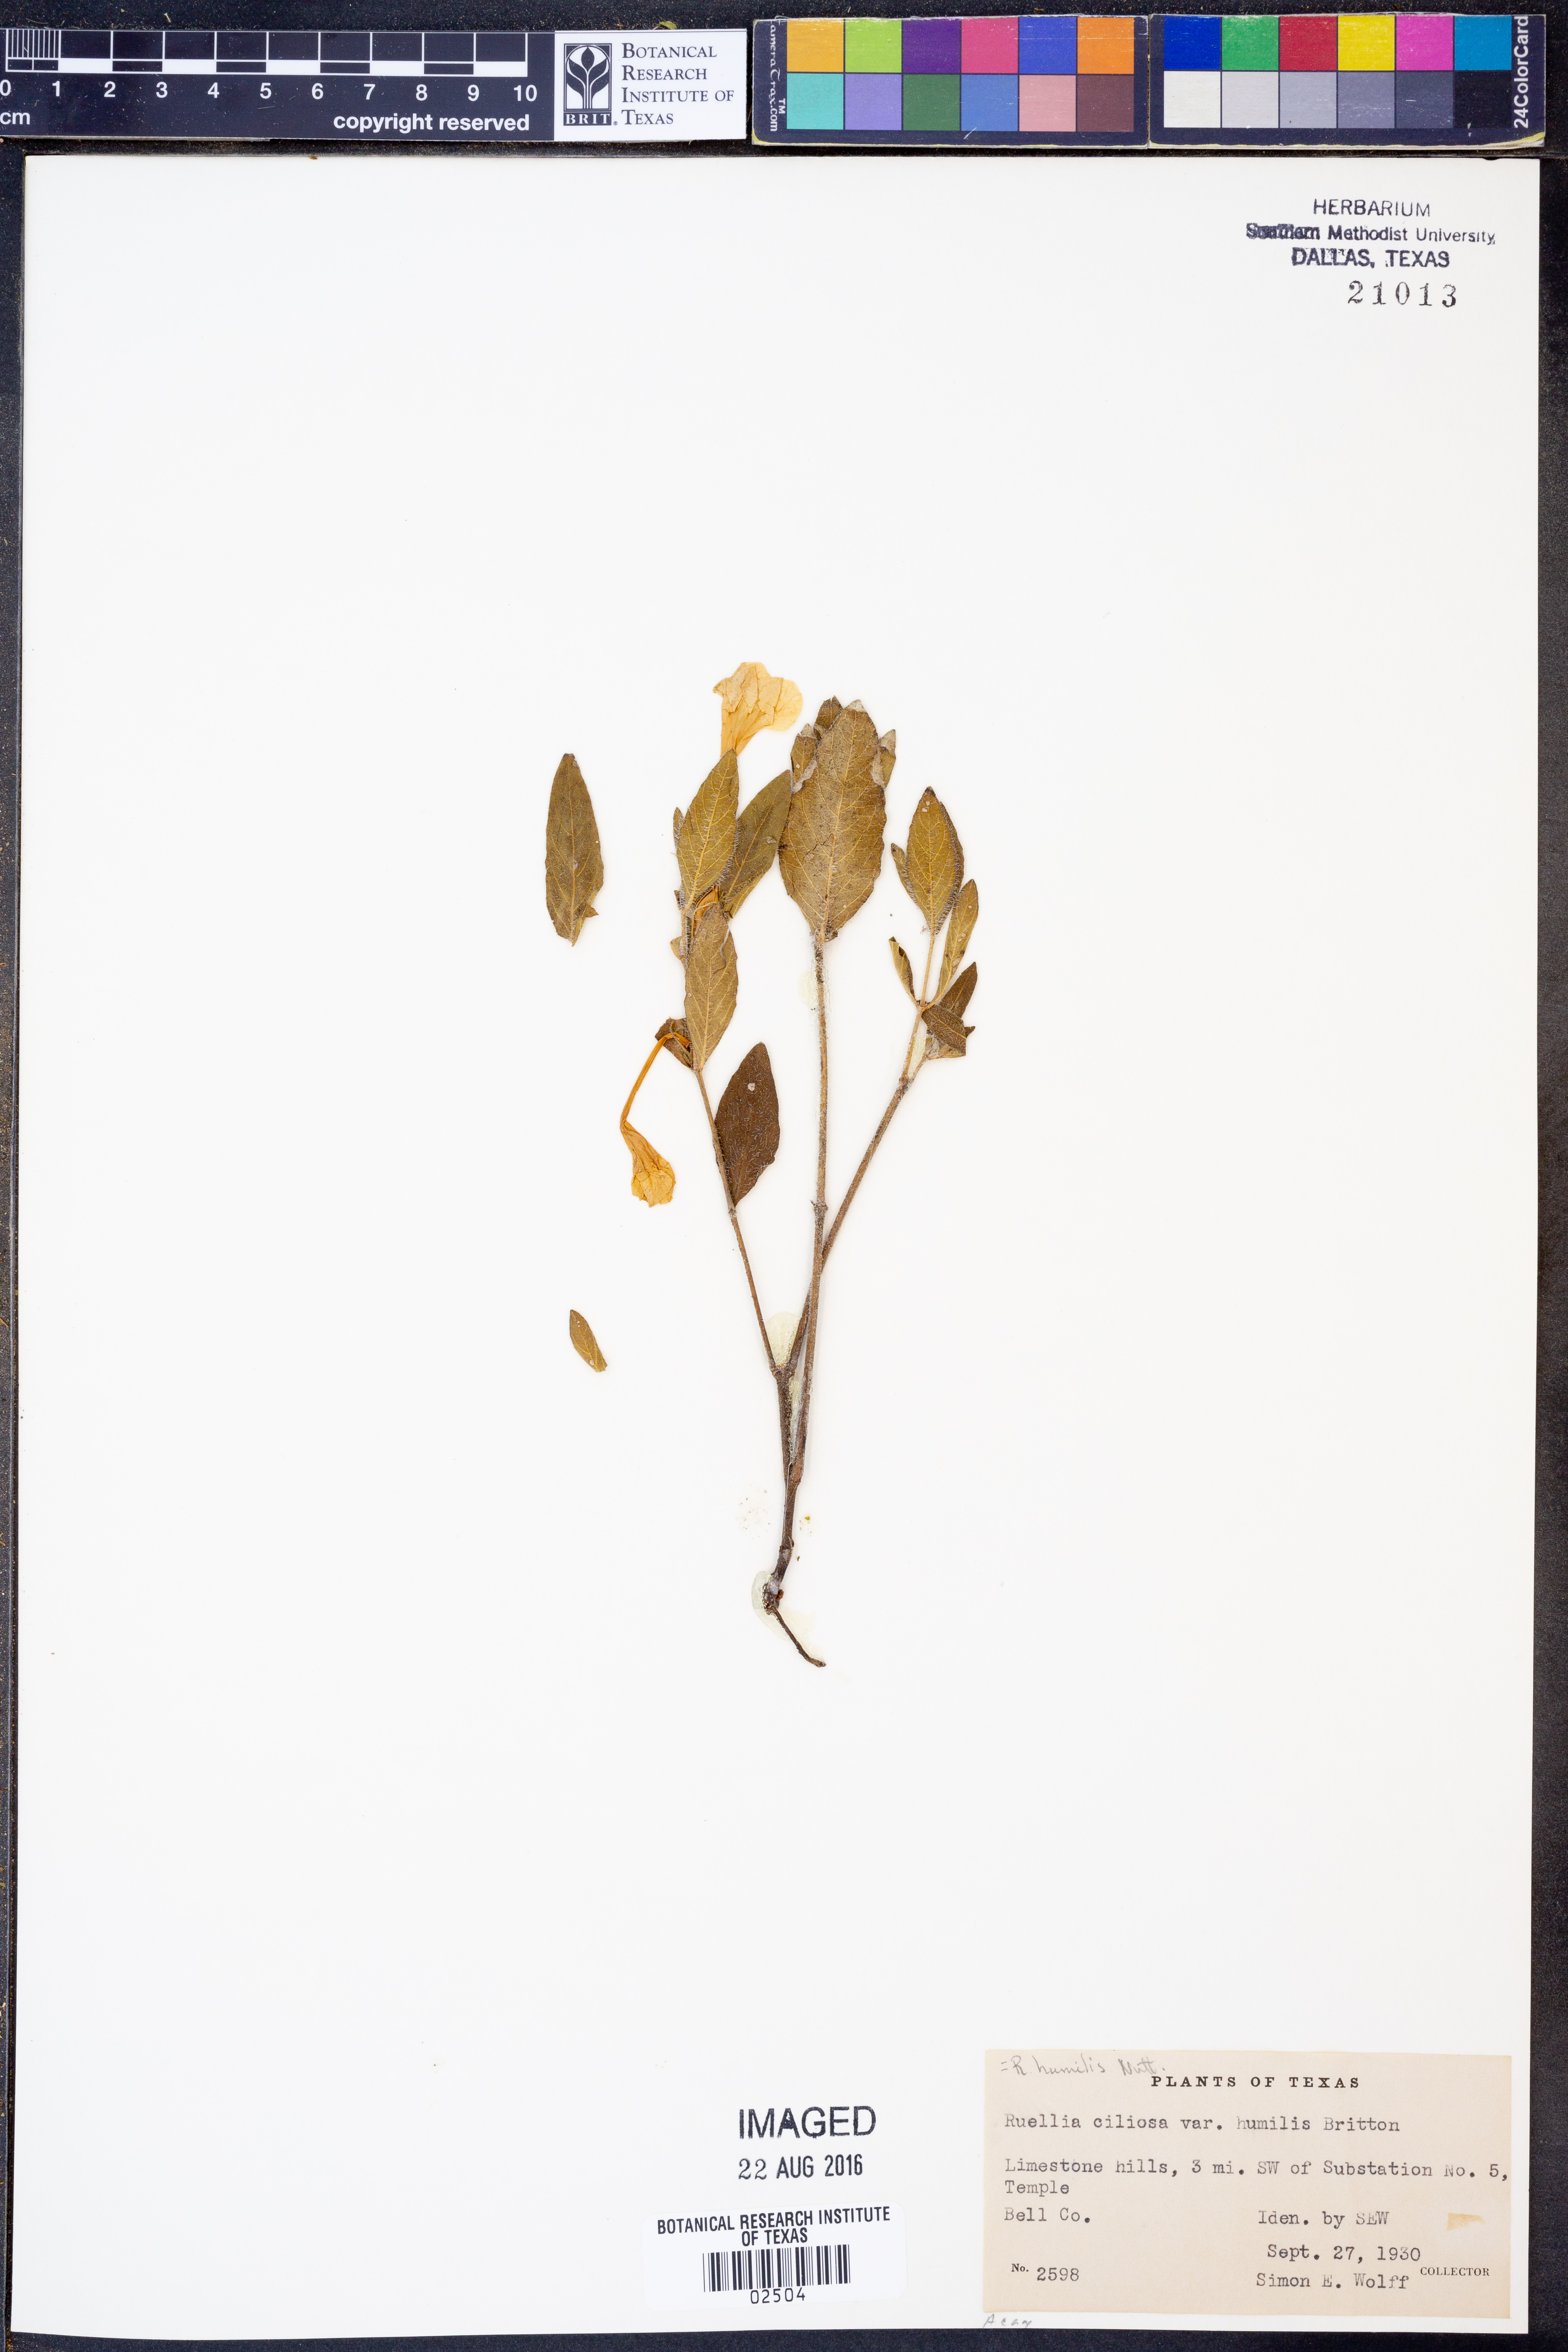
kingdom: Plantae
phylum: Tracheophyta
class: Magnoliopsida
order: Lamiales
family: Acanthaceae
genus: Ruellia
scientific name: Ruellia humilis
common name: Fringe-leaf ruellia
